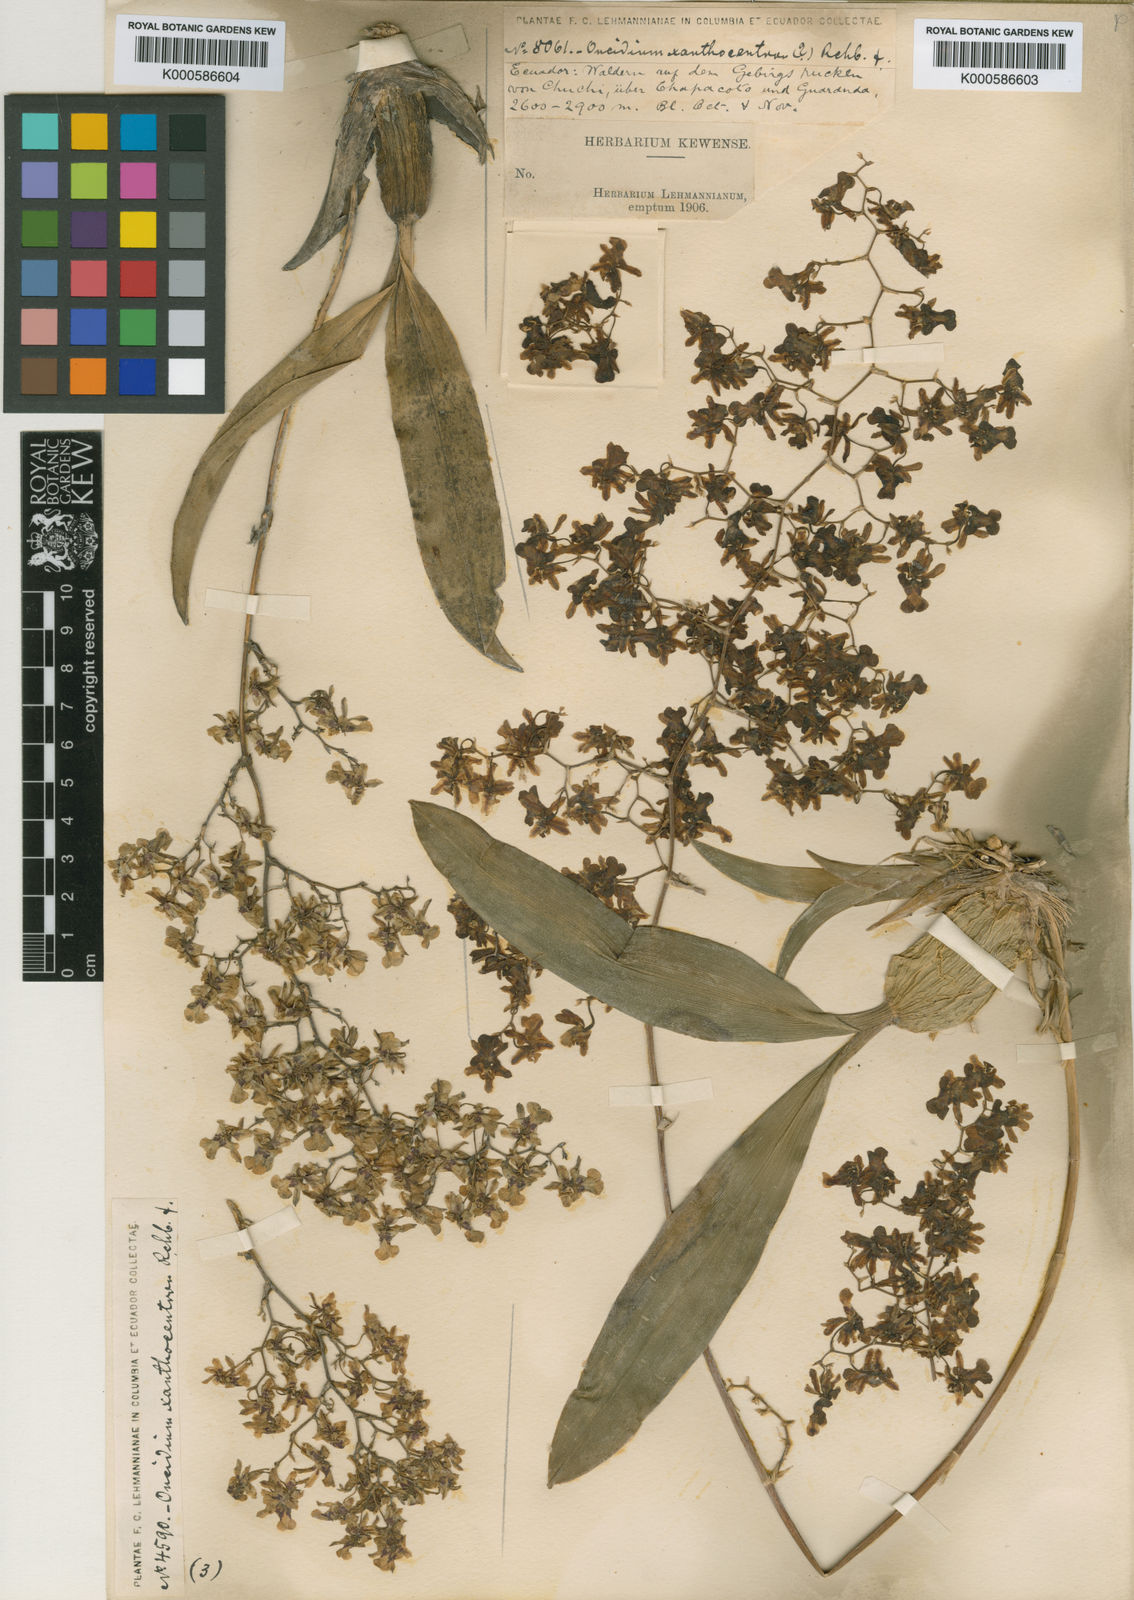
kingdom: Plantae
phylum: Tracheophyta
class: Liliopsida
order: Asparagales
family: Orchidaceae
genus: Oncidium
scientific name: Oncidium lancifolium
